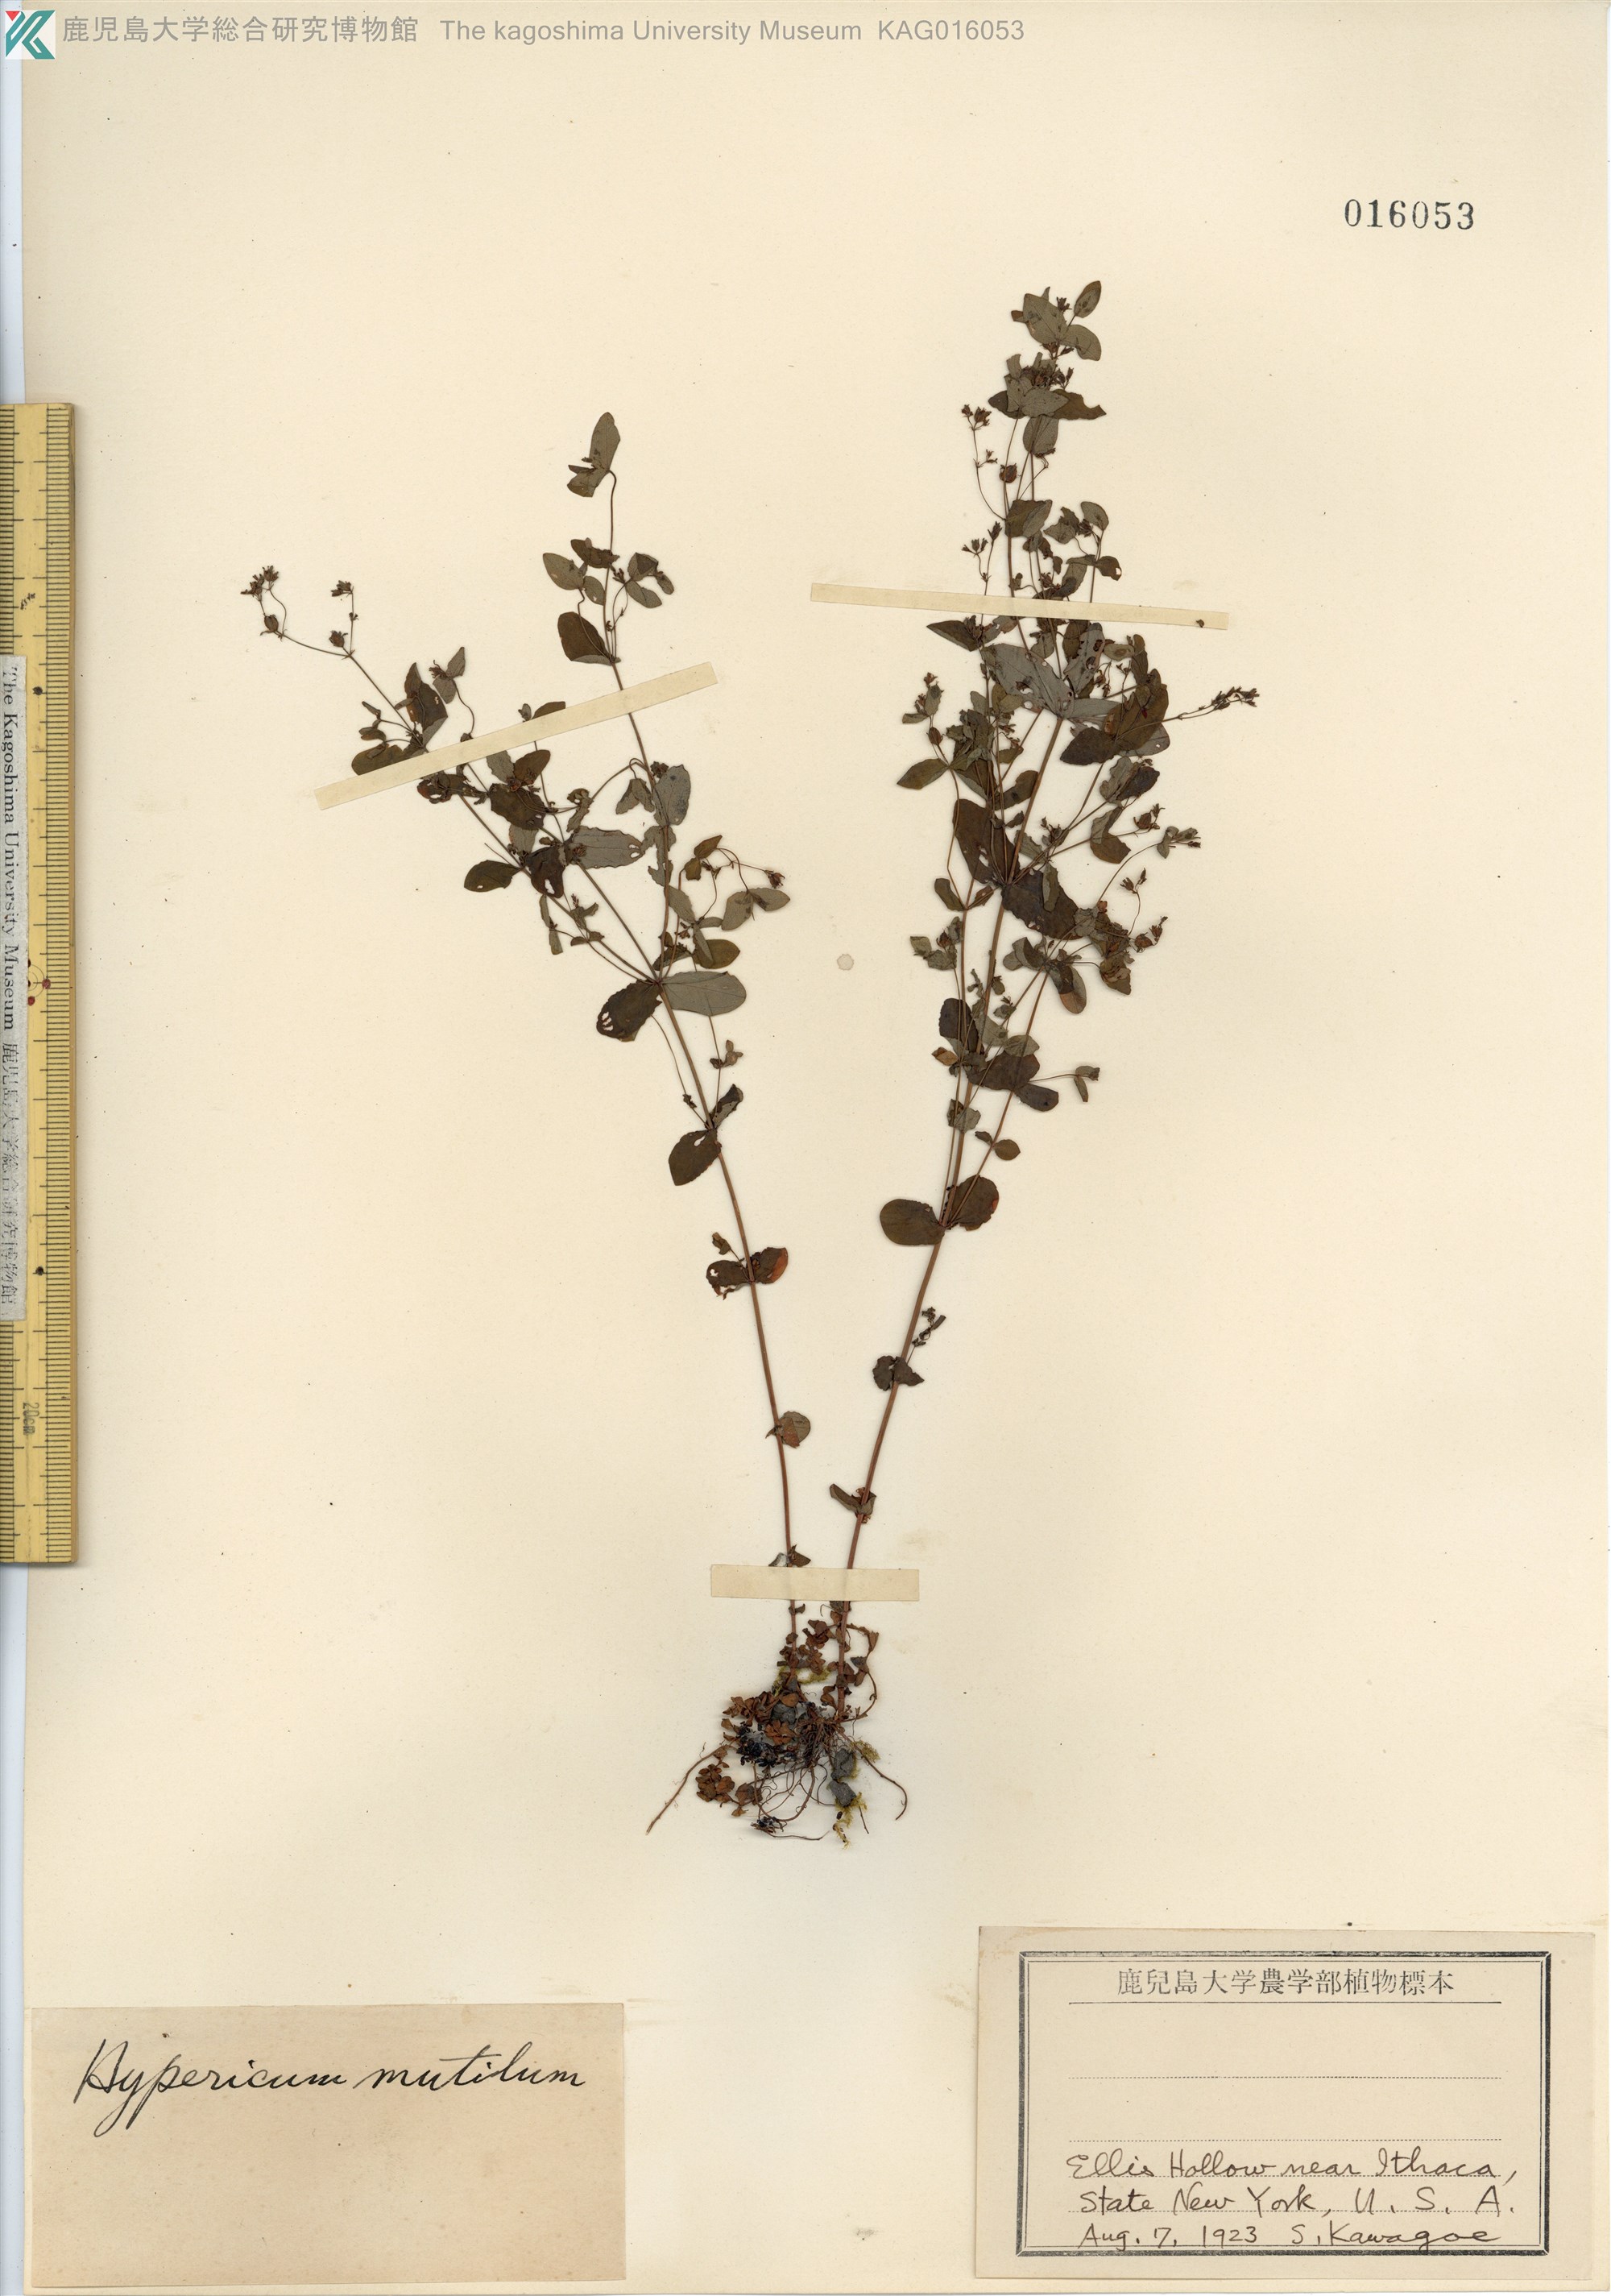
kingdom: Plantae
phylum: Tracheophyta
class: Magnoliopsida
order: Malpighiales
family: Hypericaceae
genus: Hypericum
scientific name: Hypericum mutilum
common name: Dwarf st. john's-wort
